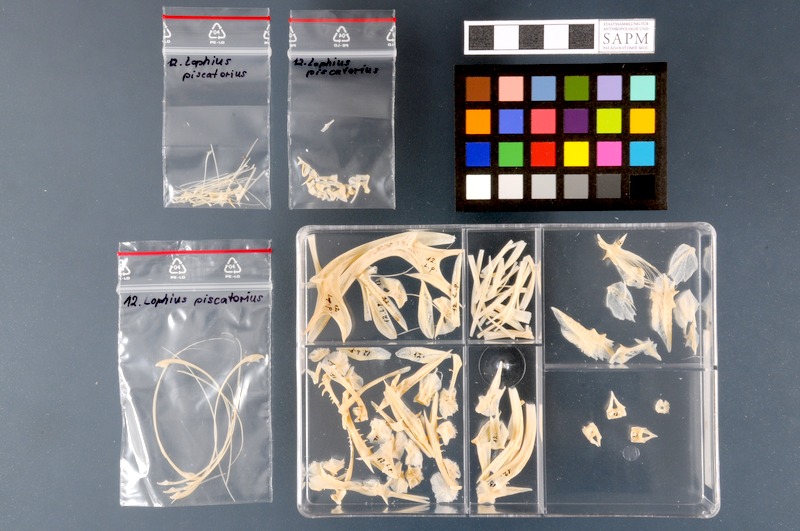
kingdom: Animalia
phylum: Chordata
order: Lophiiformes
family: Lophiidae
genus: Lophius
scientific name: Lophius piscatorius
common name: Angler
